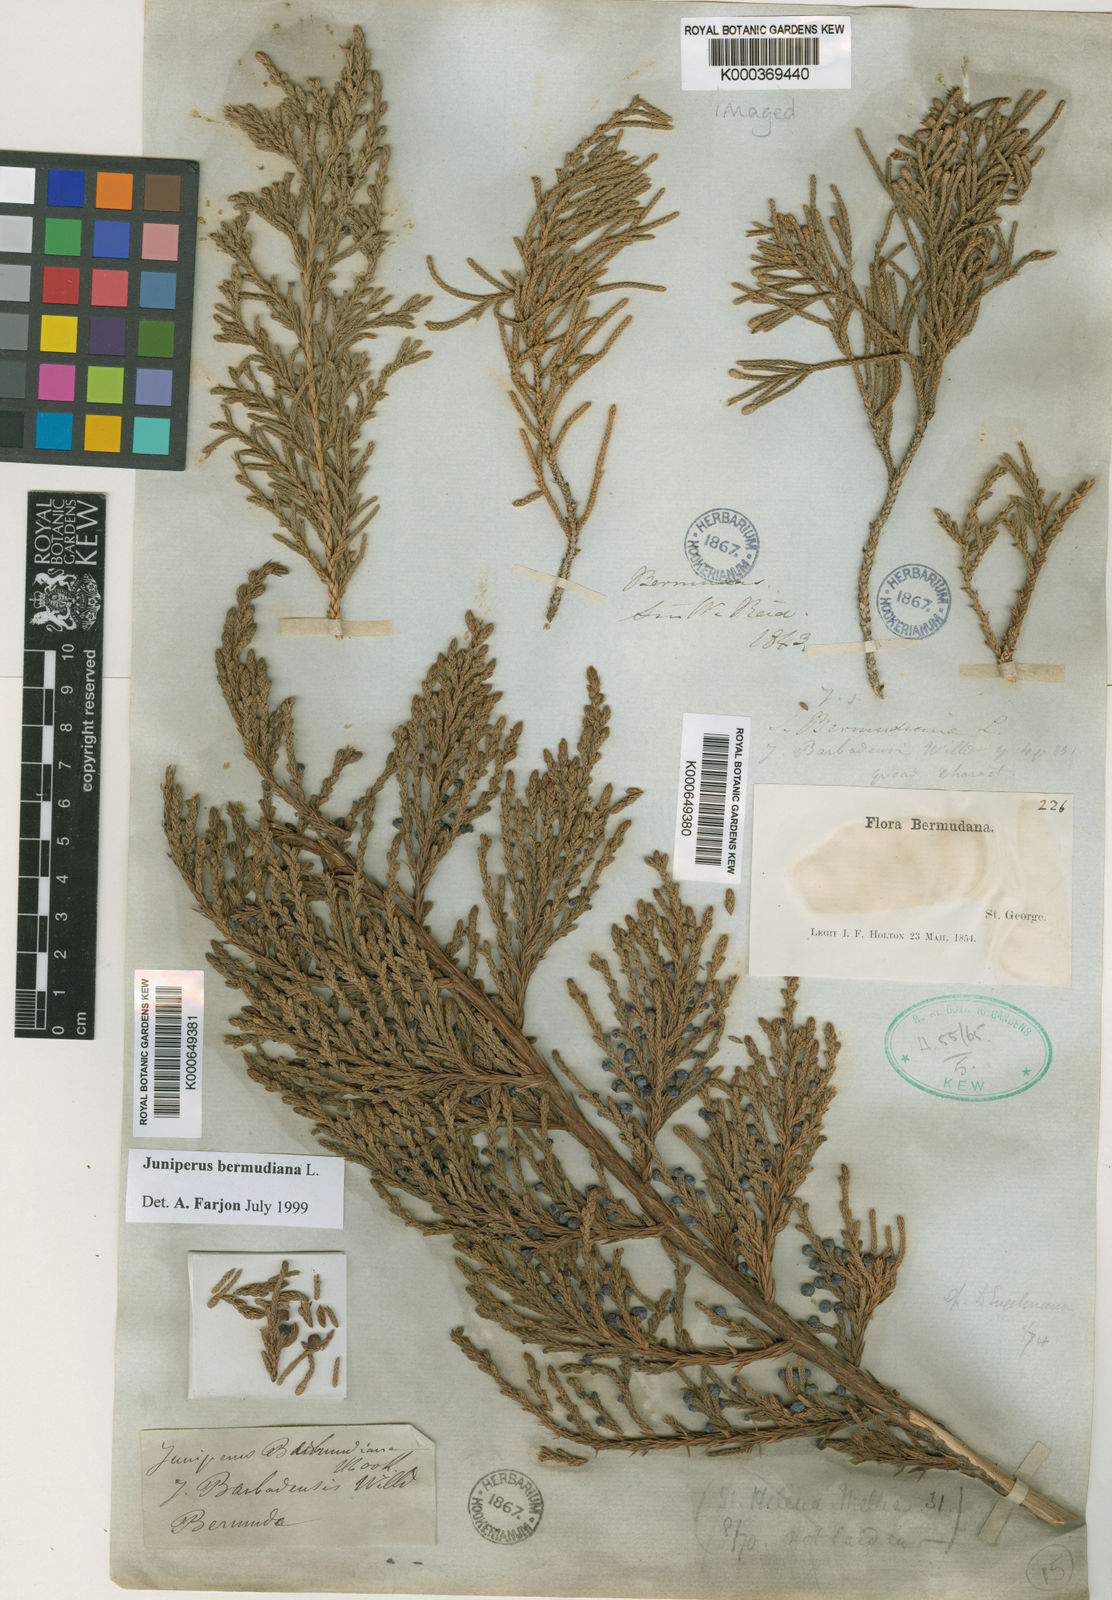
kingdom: Plantae
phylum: Tracheophyta
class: Pinopsida
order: Pinales
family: Cupressaceae
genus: Juniperus
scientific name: Juniperus bermudiana
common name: Bermuda juniper
